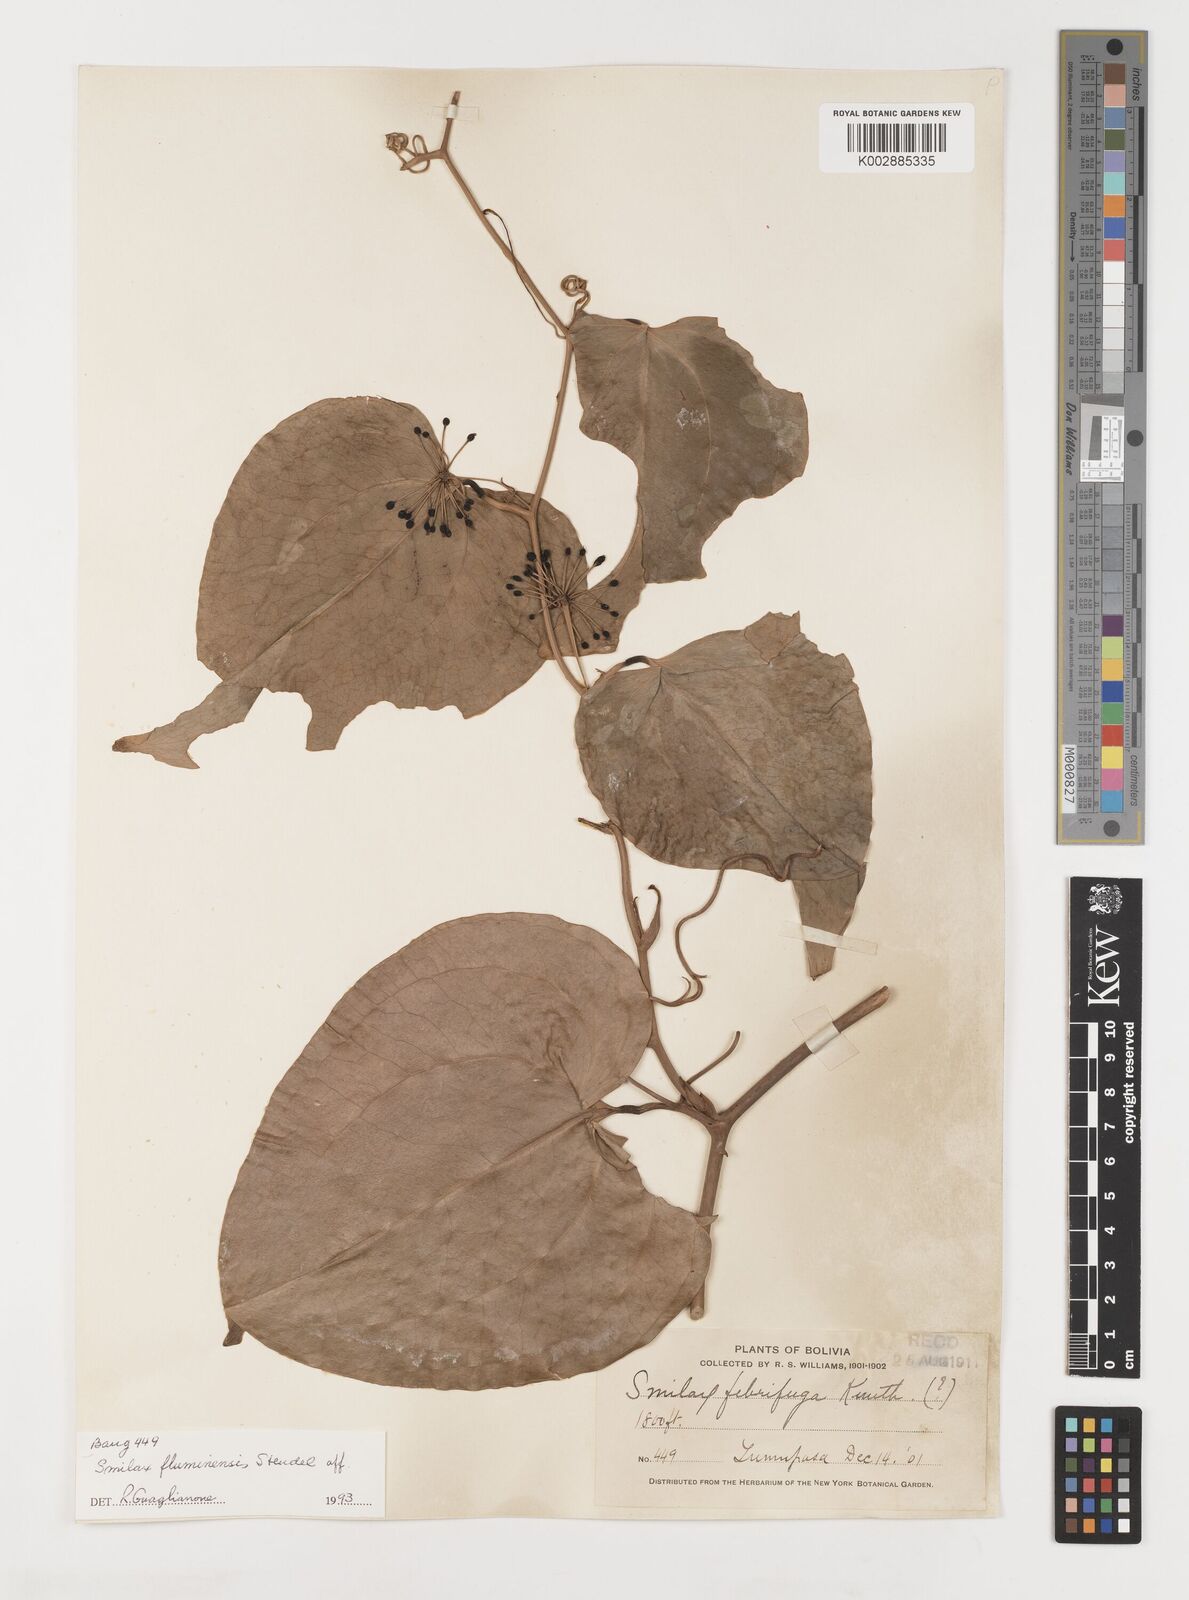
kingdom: Plantae
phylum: Tracheophyta
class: Liliopsida
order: Liliales
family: Smilacaceae
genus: Smilax
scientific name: Smilax purhampuy
